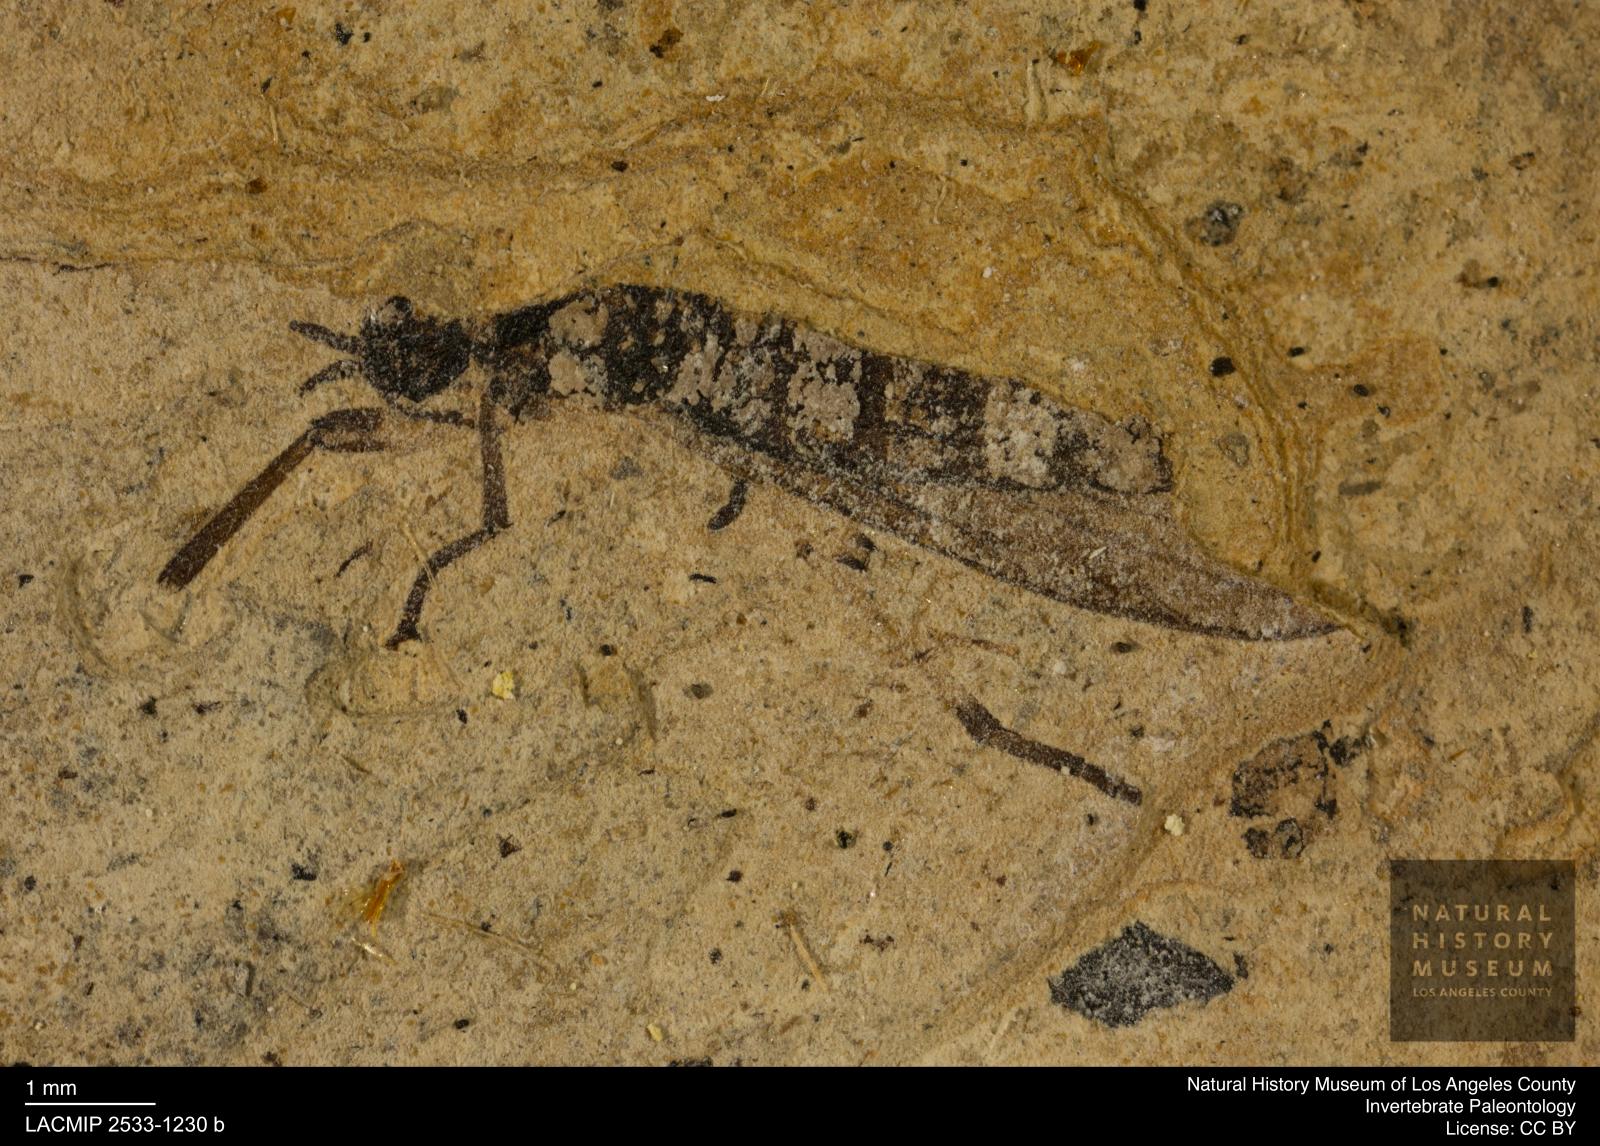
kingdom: Animalia
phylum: Arthropoda
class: Insecta
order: Diptera
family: Bibionidae
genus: Plecia
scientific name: Plecia hypogaea
